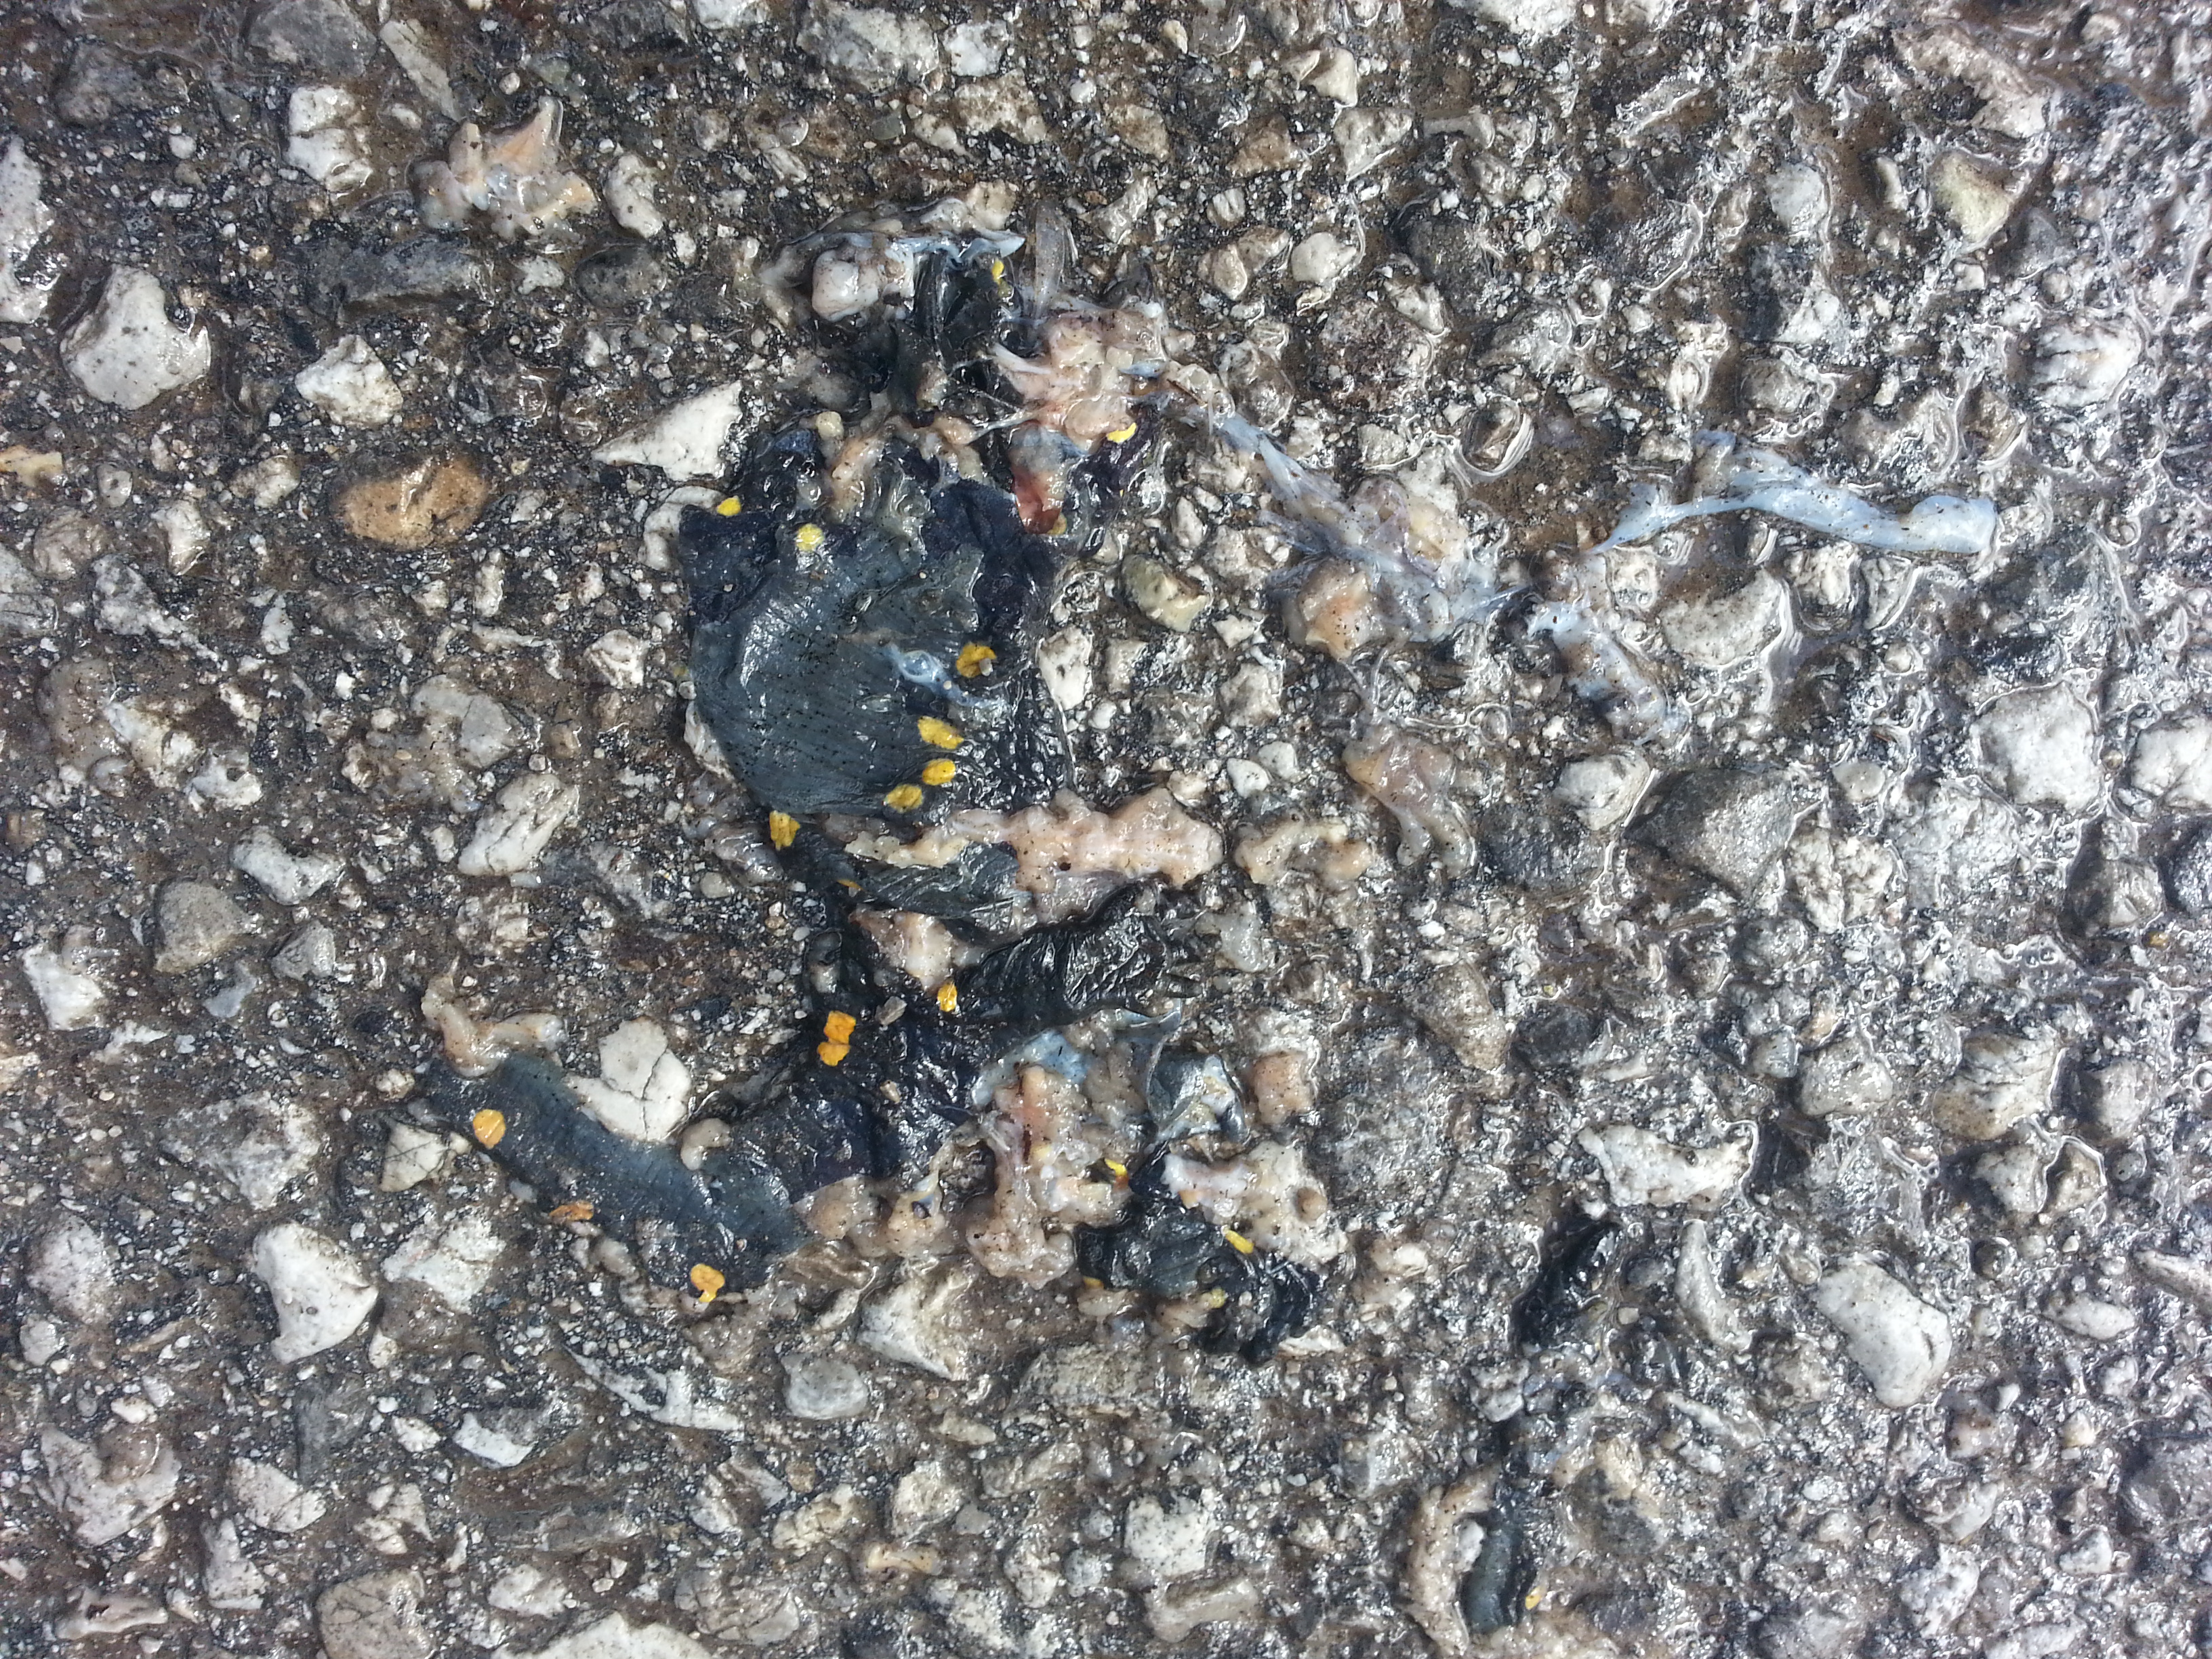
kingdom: Animalia
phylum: Chordata
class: Amphibia
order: Caudata
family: Salamandridae
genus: Salamandra
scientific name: Salamandra salamandra
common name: Fire salamander
